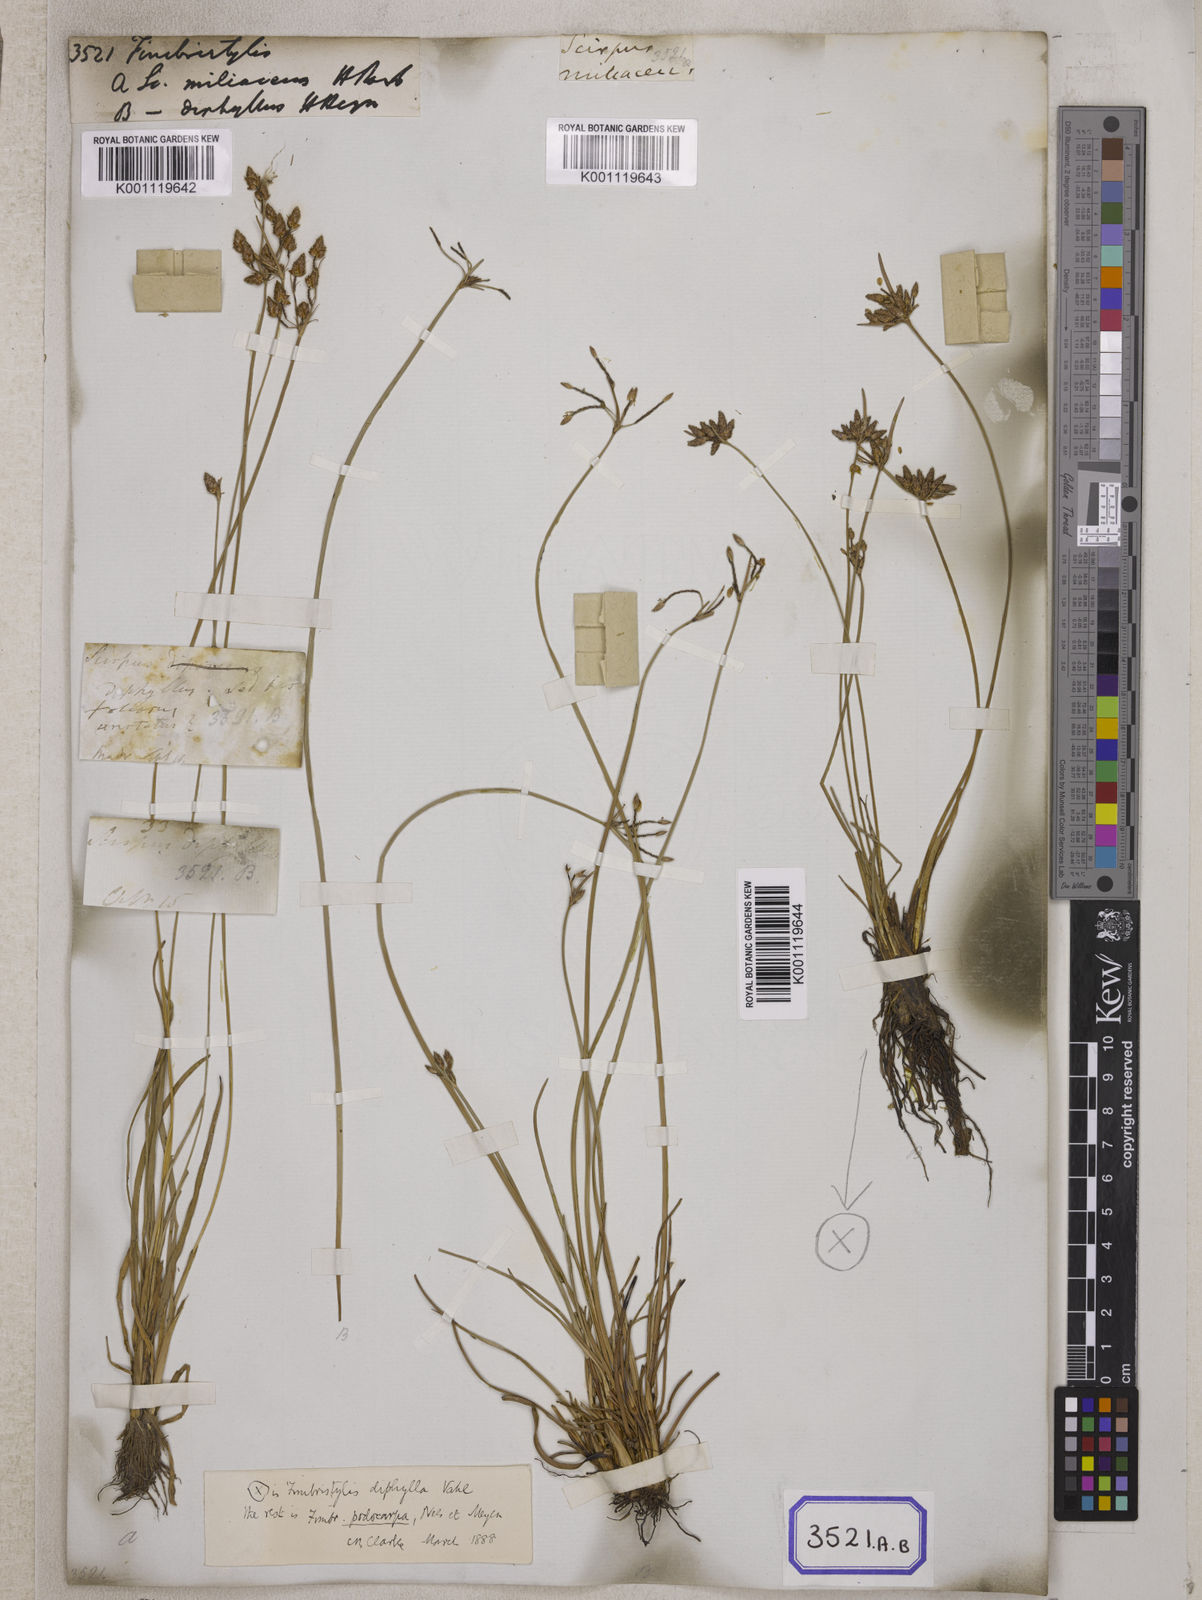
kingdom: Plantae
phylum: Tracheophyta
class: Liliopsida
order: Poales
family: Cyperaceae
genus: Fimbristylis
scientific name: Fimbristylis
